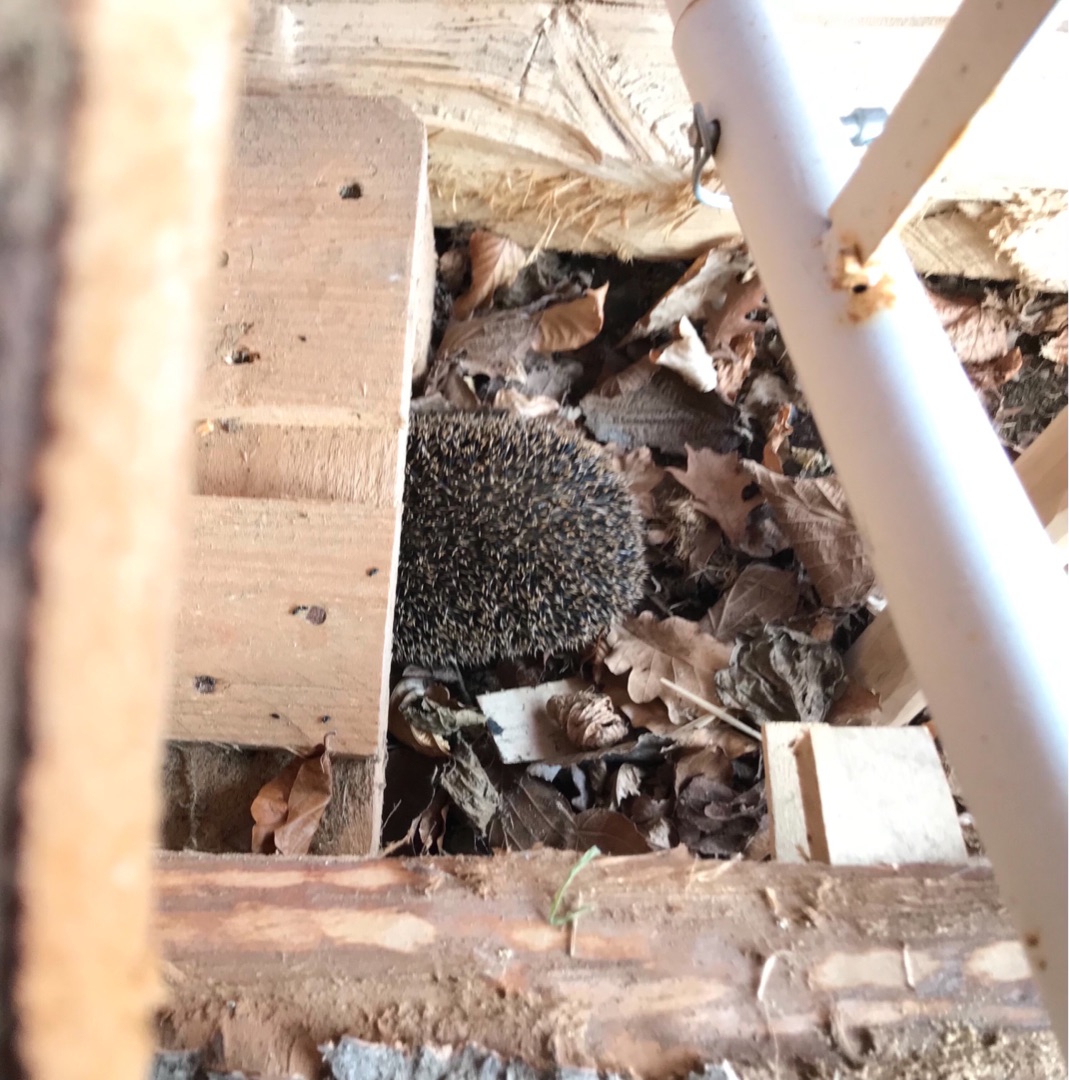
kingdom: Animalia
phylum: Chordata
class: Mammalia
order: Erinaceomorpha
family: Erinaceidae
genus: Erinaceus
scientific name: Erinaceus europaeus
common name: Pindsvin
